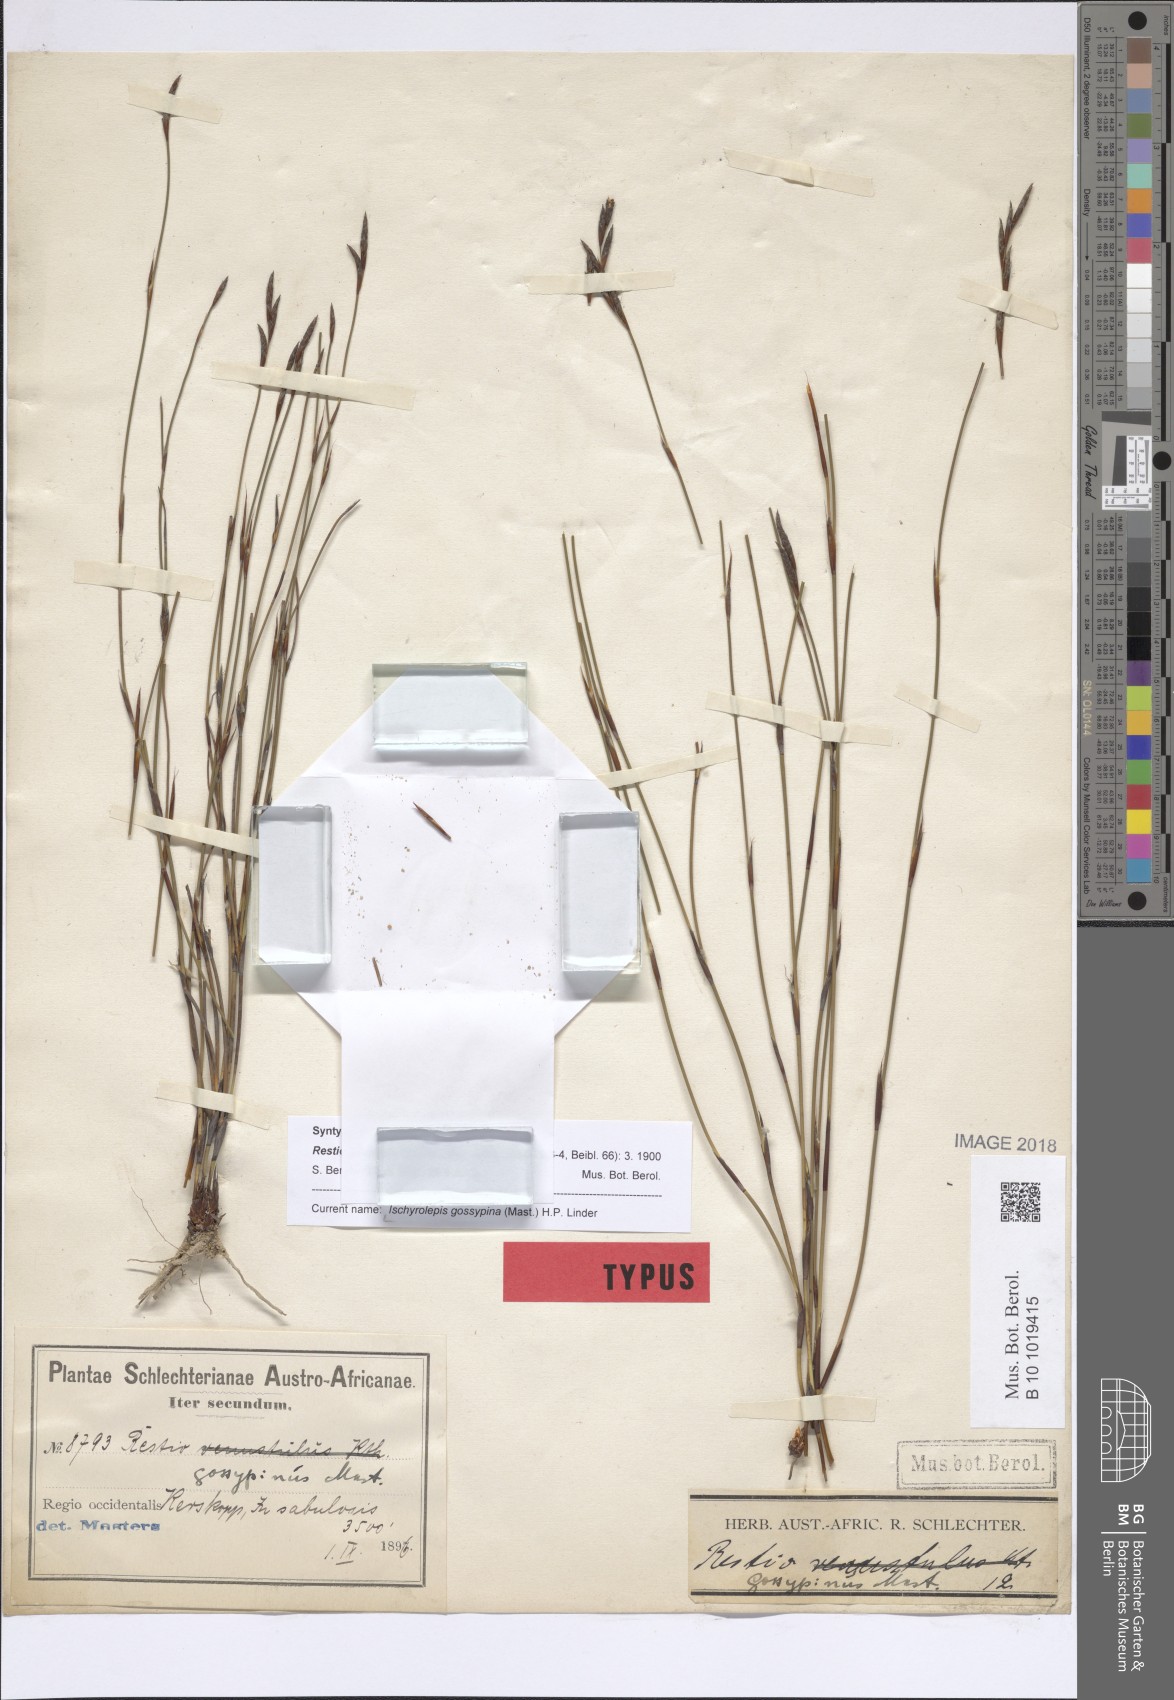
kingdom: Plantae
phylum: Tracheophyta
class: Liliopsida
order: Poales
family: Restionaceae
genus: Restio
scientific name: Restio gossypinus
